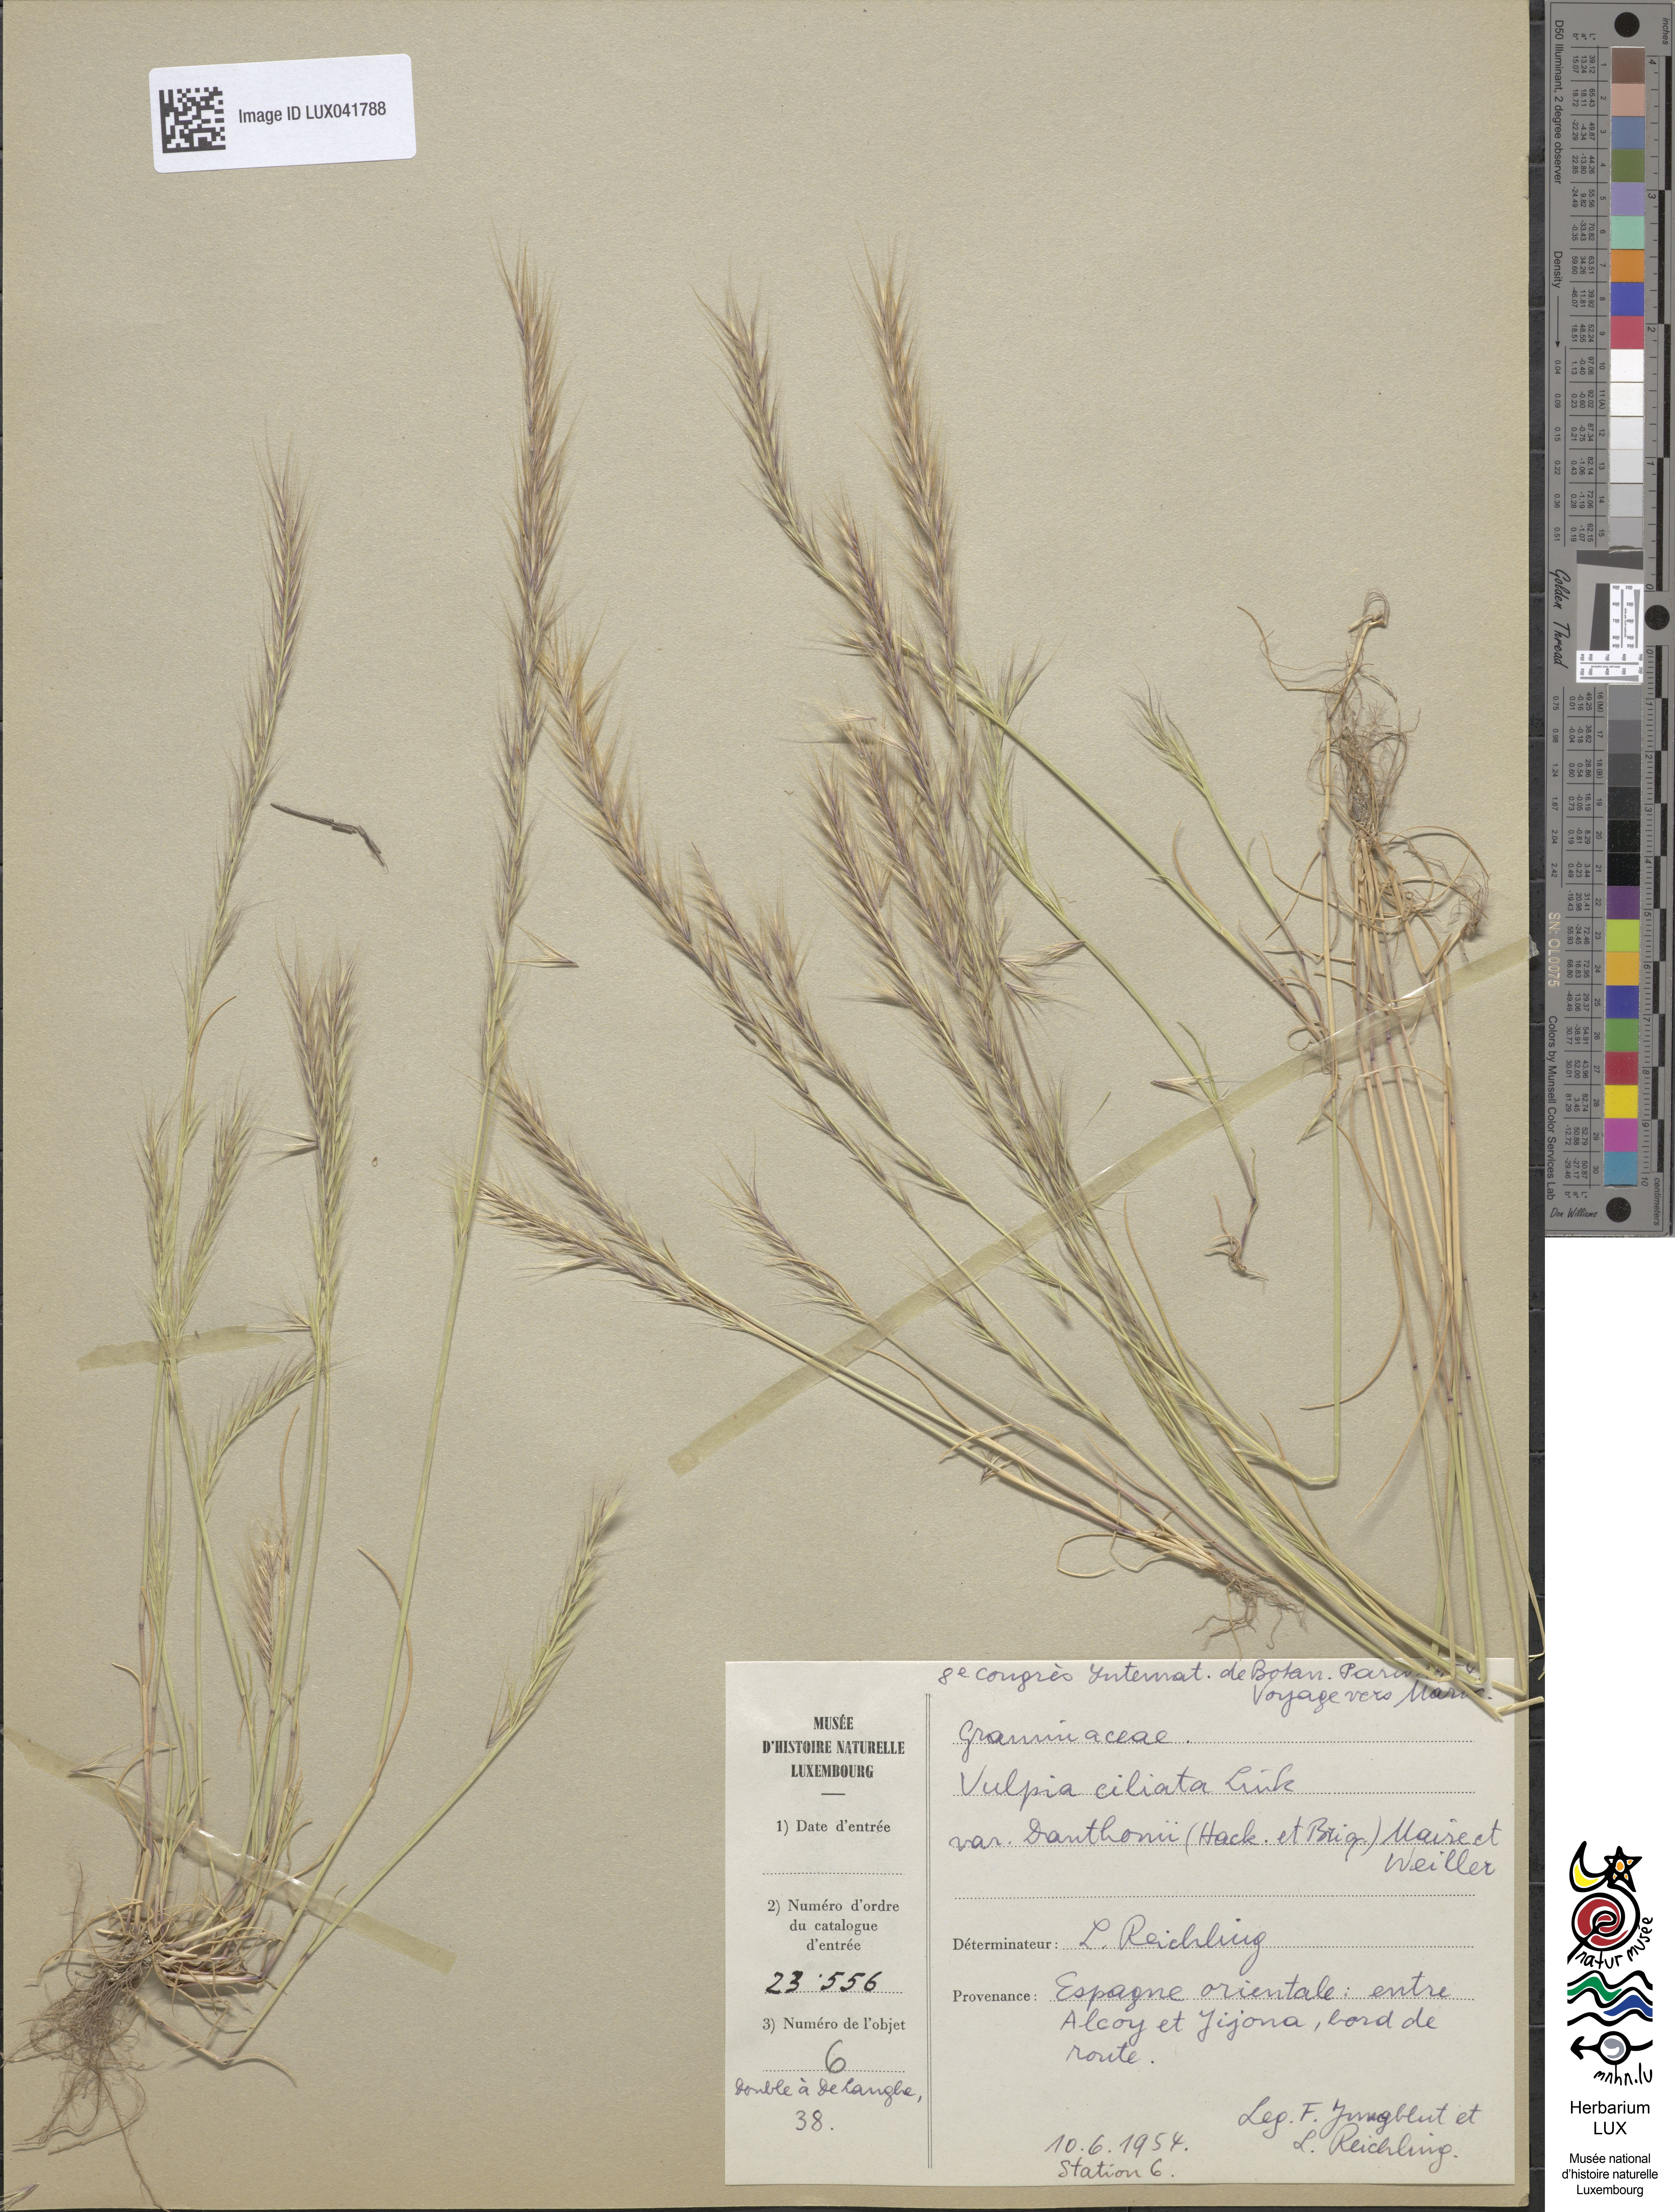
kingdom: Plantae
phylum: Tracheophyta
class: Liliopsida
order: Poales
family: Poaceae
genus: Festuca
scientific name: Festuca ambigua
